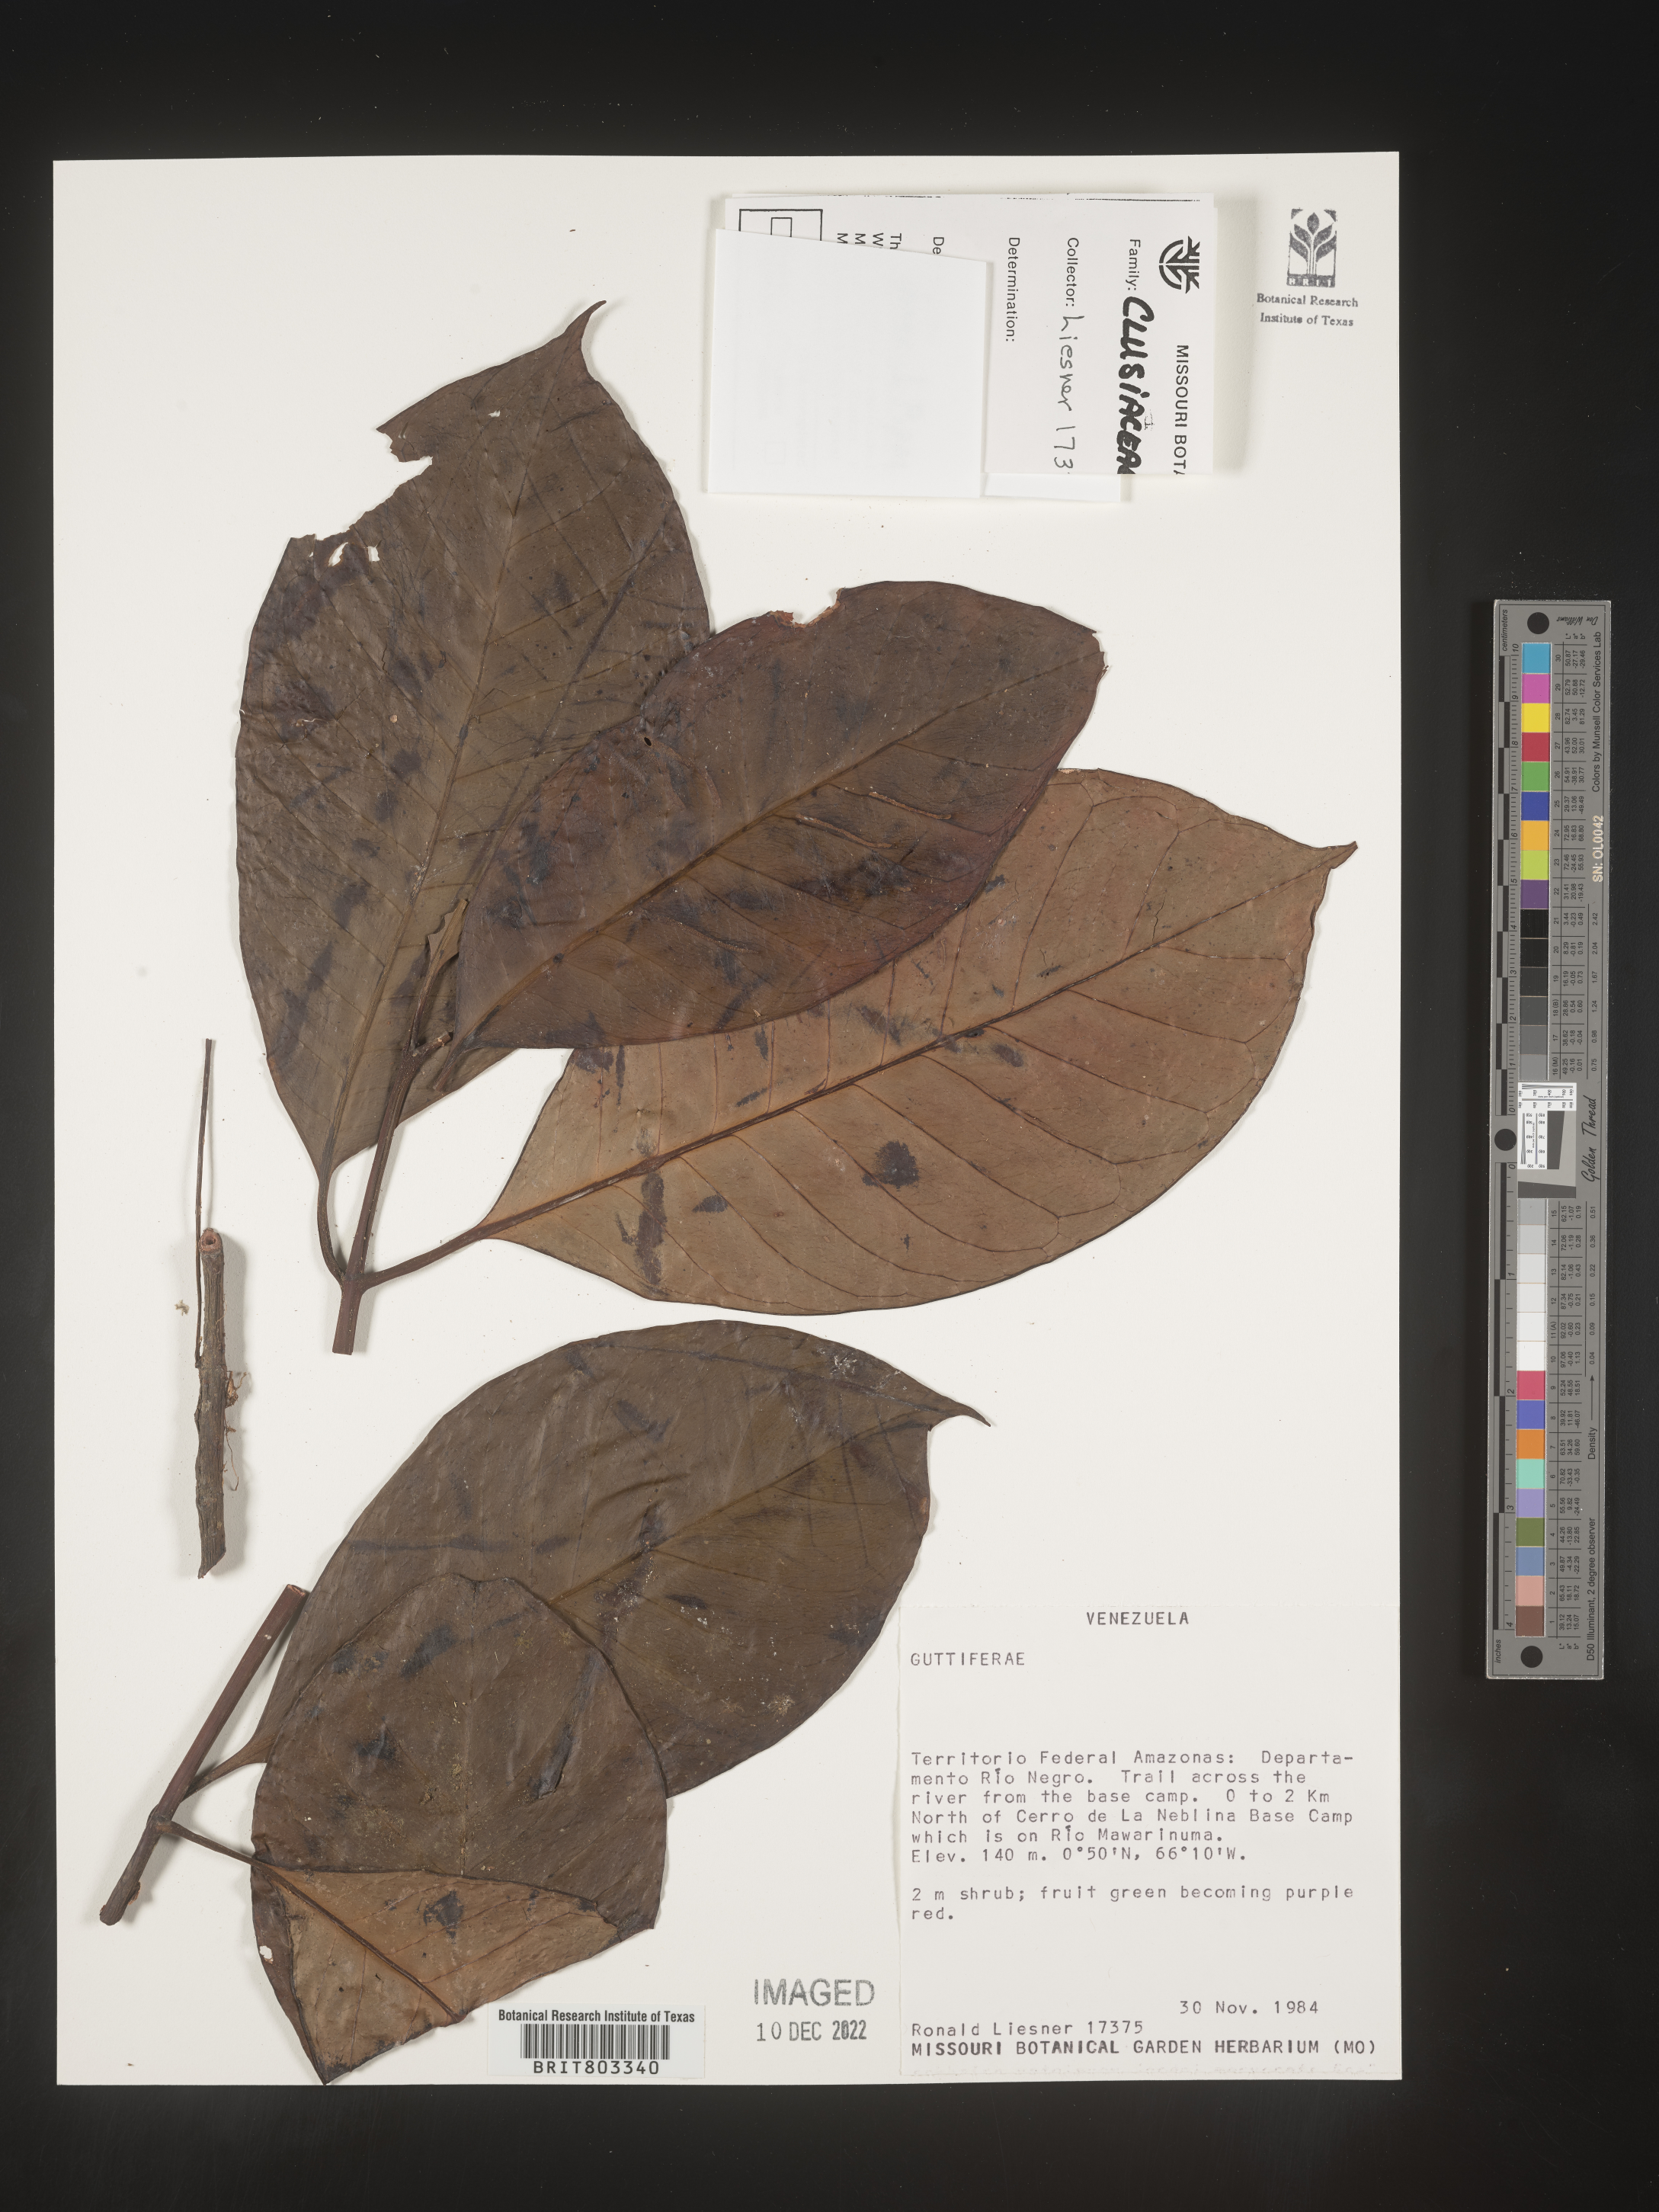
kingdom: Plantae
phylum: Tracheophyta
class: Magnoliopsida
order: Malpighiales
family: Clusiaceae
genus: Tovomita
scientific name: Tovomita
